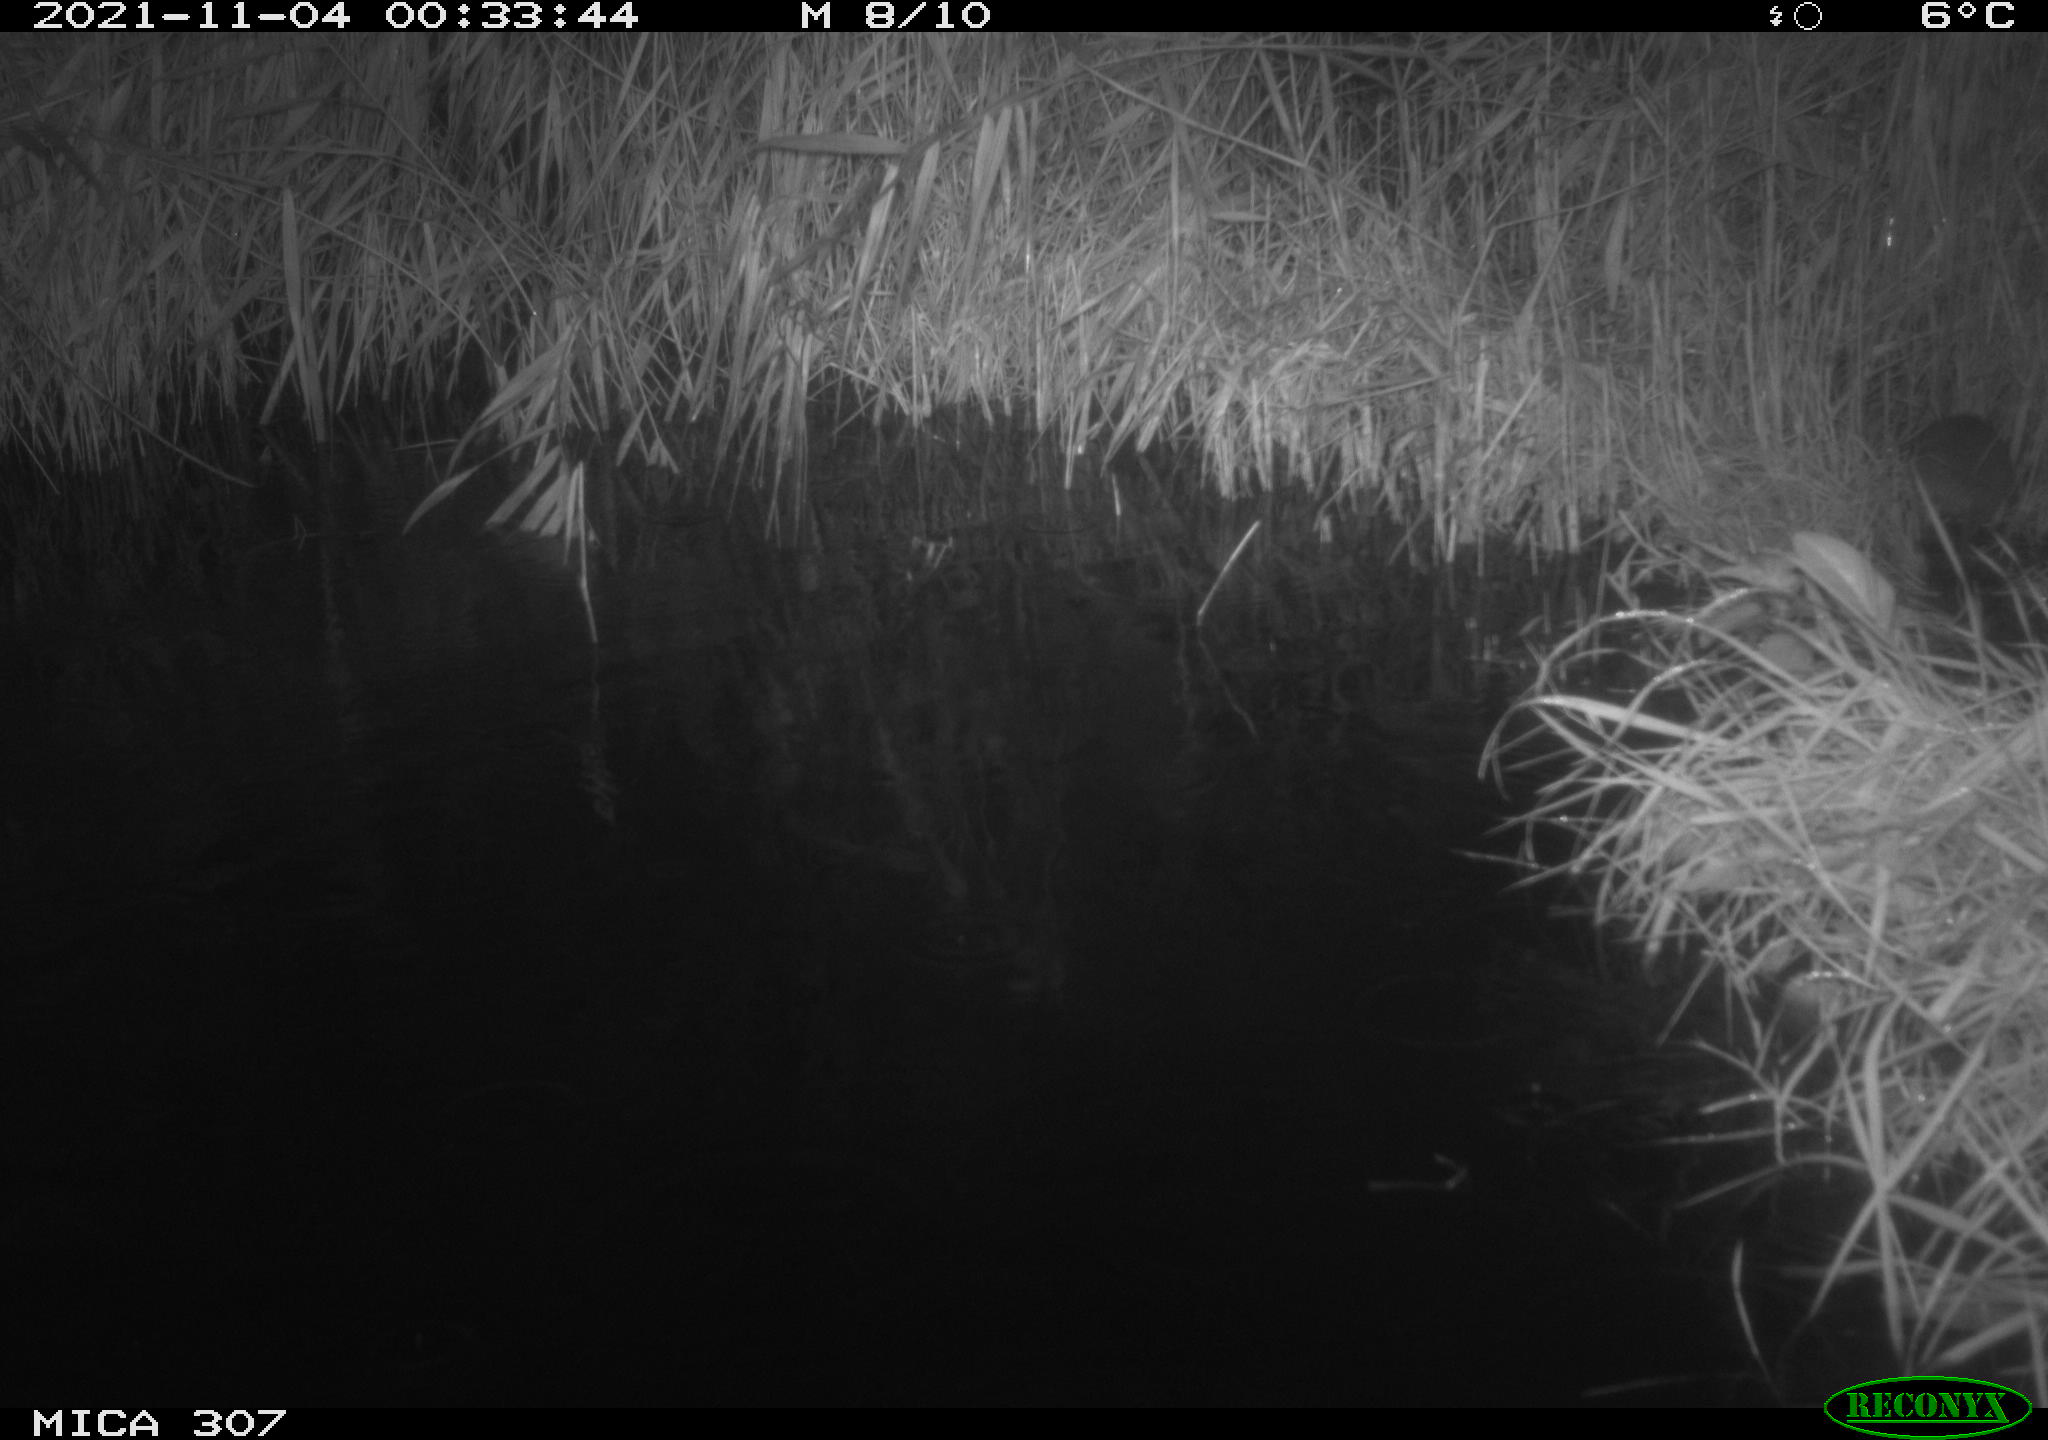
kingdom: Animalia
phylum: Chordata
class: Mammalia
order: Rodentia
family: Muridae
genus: Rattus
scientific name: Rattus norvegicus
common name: Brown rat
